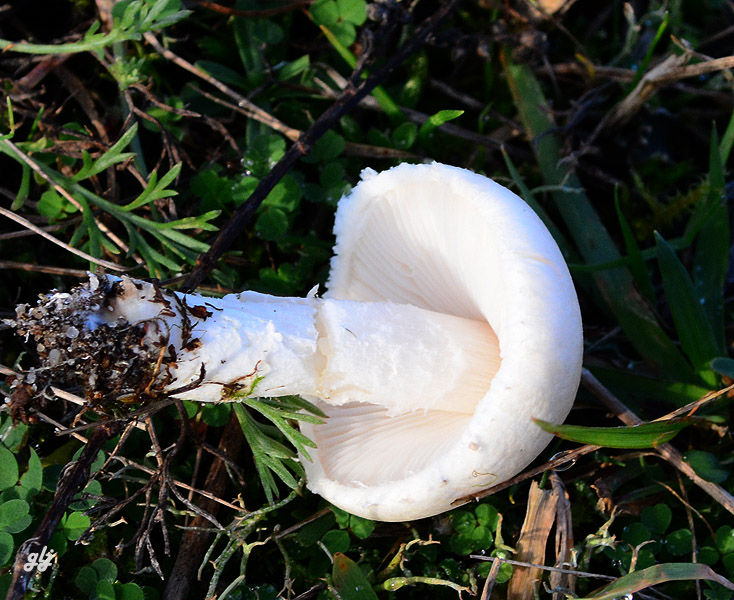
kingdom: Fungi
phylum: Basidiomycota
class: Agaricomycetes
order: Agaricales
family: Agaricaceae
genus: Lepiota
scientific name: Lepiota erminea
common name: hvid parasolhat
